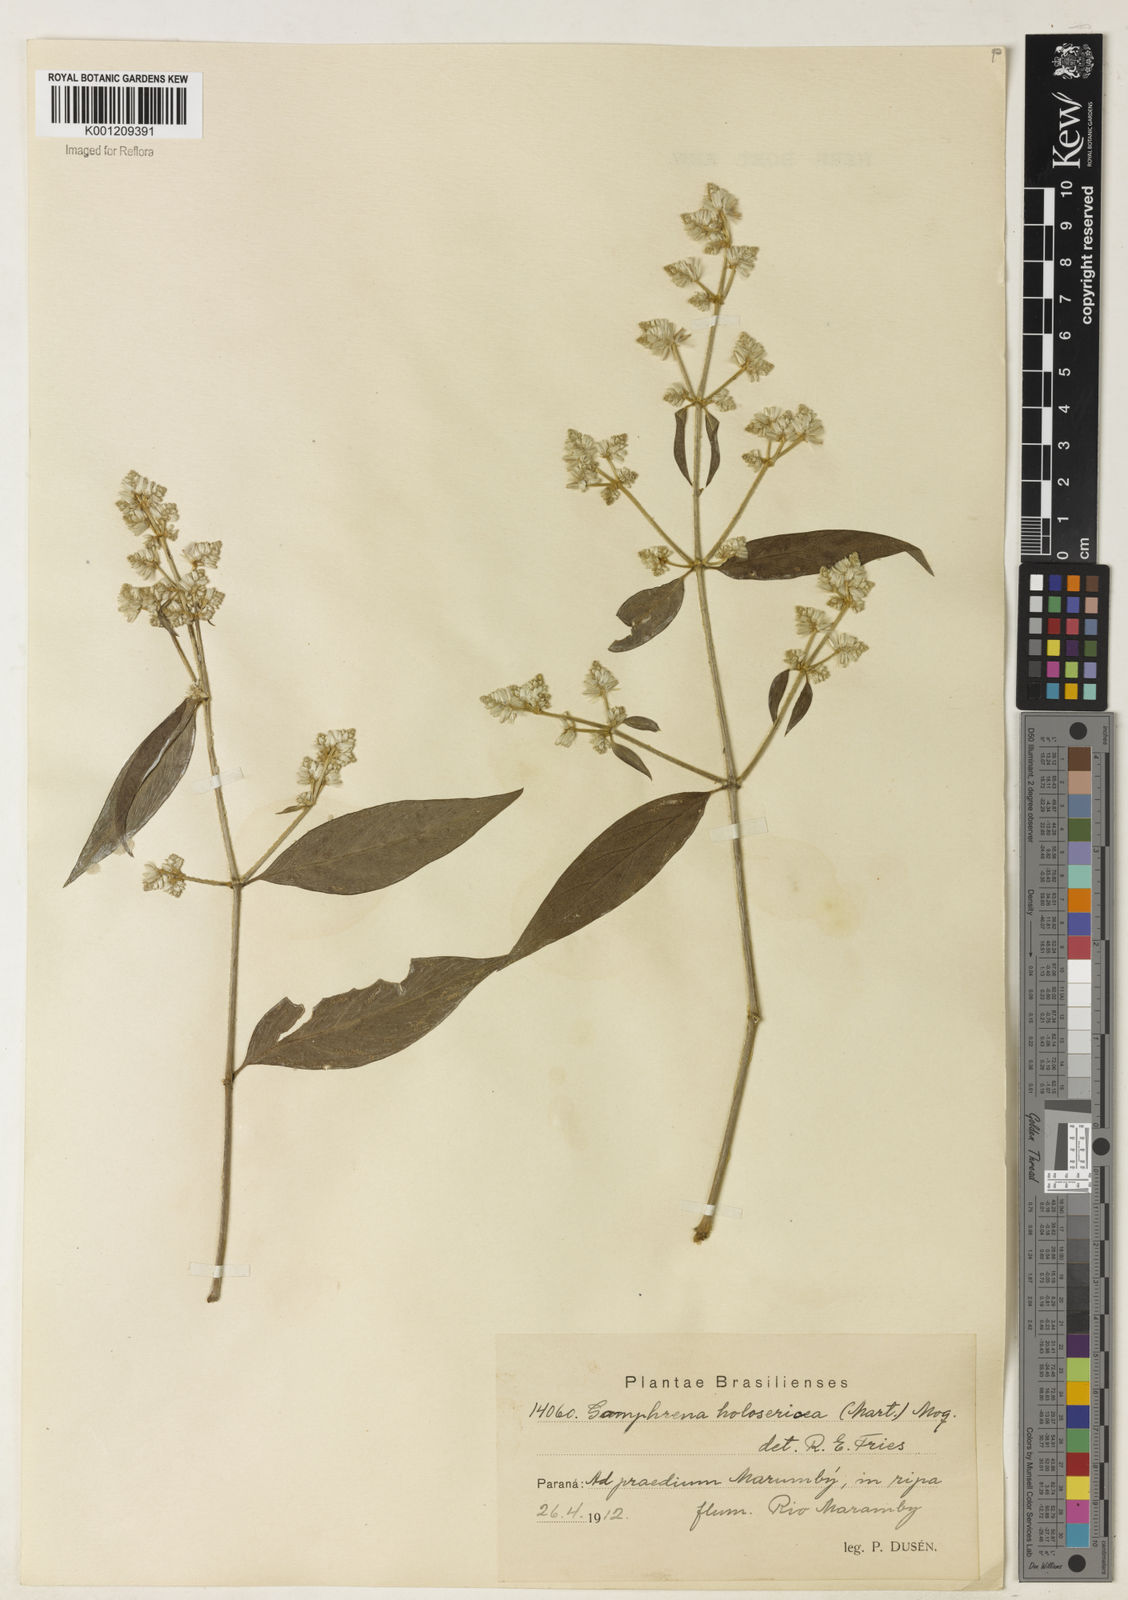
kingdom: Plantae
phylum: Tracheophyta
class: Magnoliopsida
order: Caryophyllales
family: Amaranthaceae
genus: Gomphrena
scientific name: Gomphrena vaga
